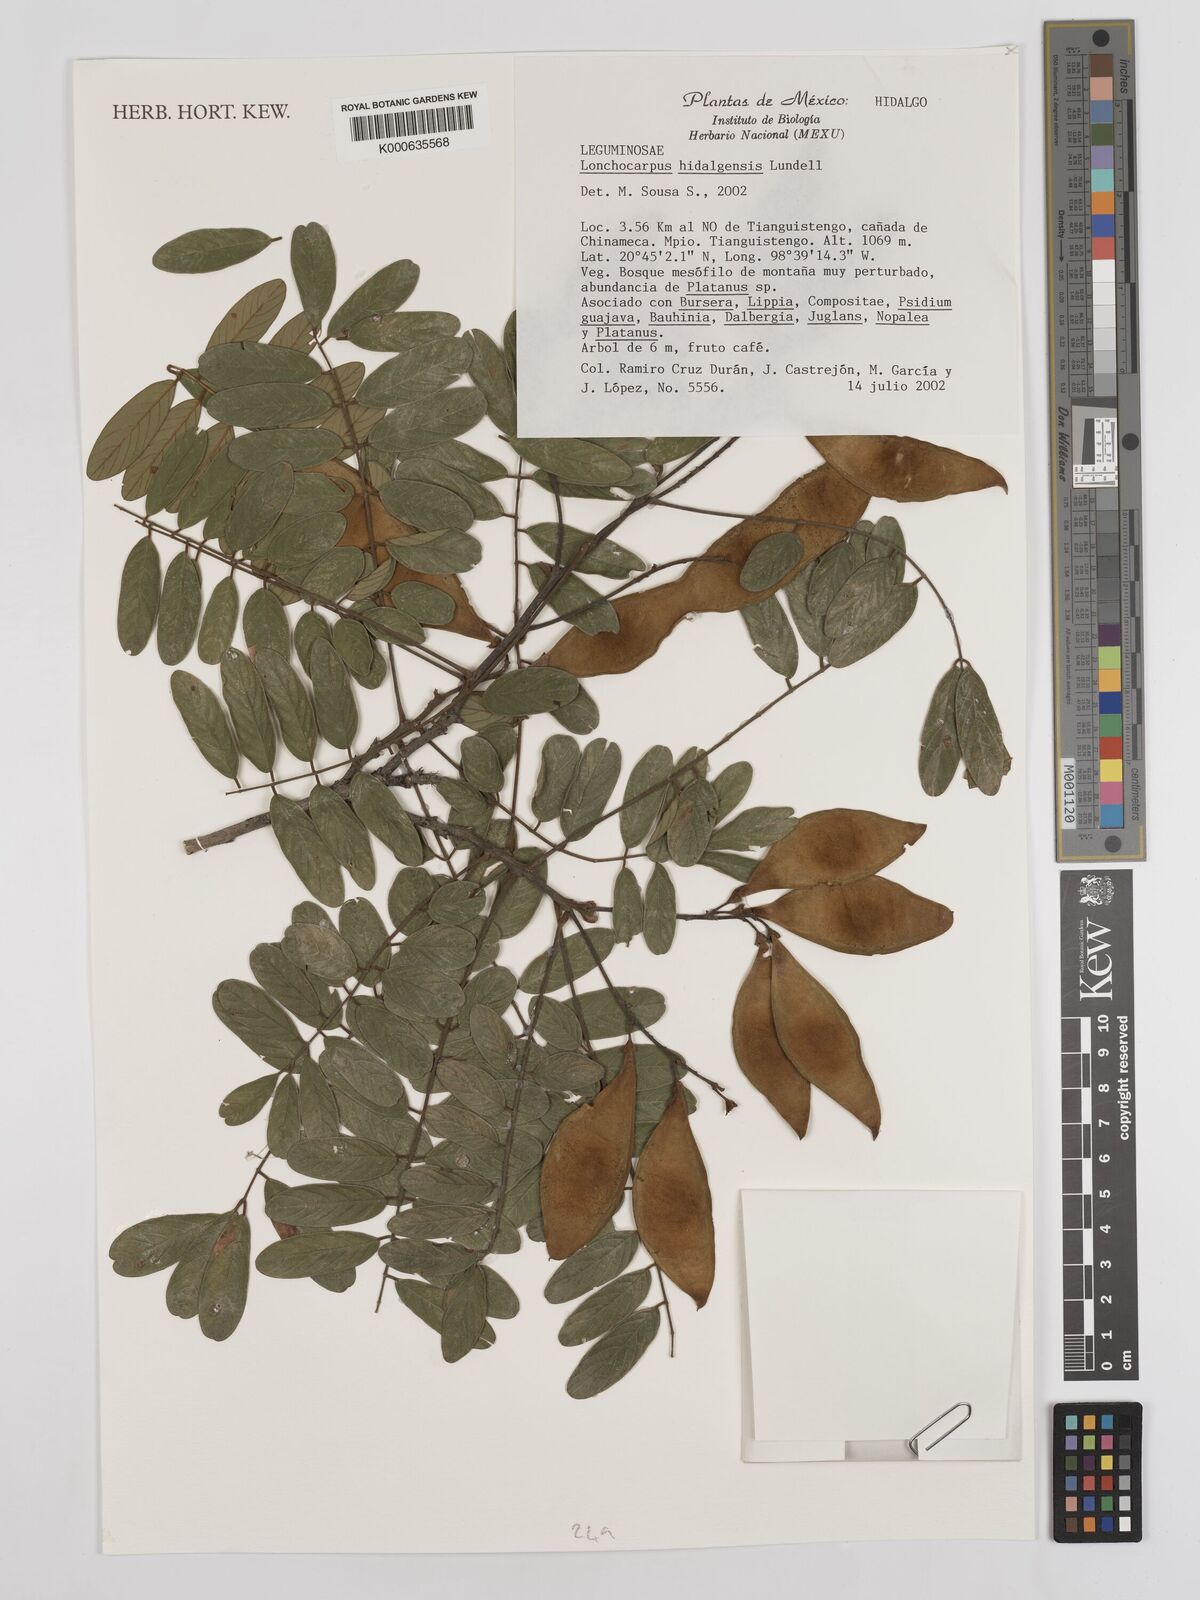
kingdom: Plantae
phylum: Tracheophyta
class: Magnoliopsida
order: Fabales
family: Fabaceae
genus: Lonchocarpus
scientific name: Lonchocarpus hidalgensis
